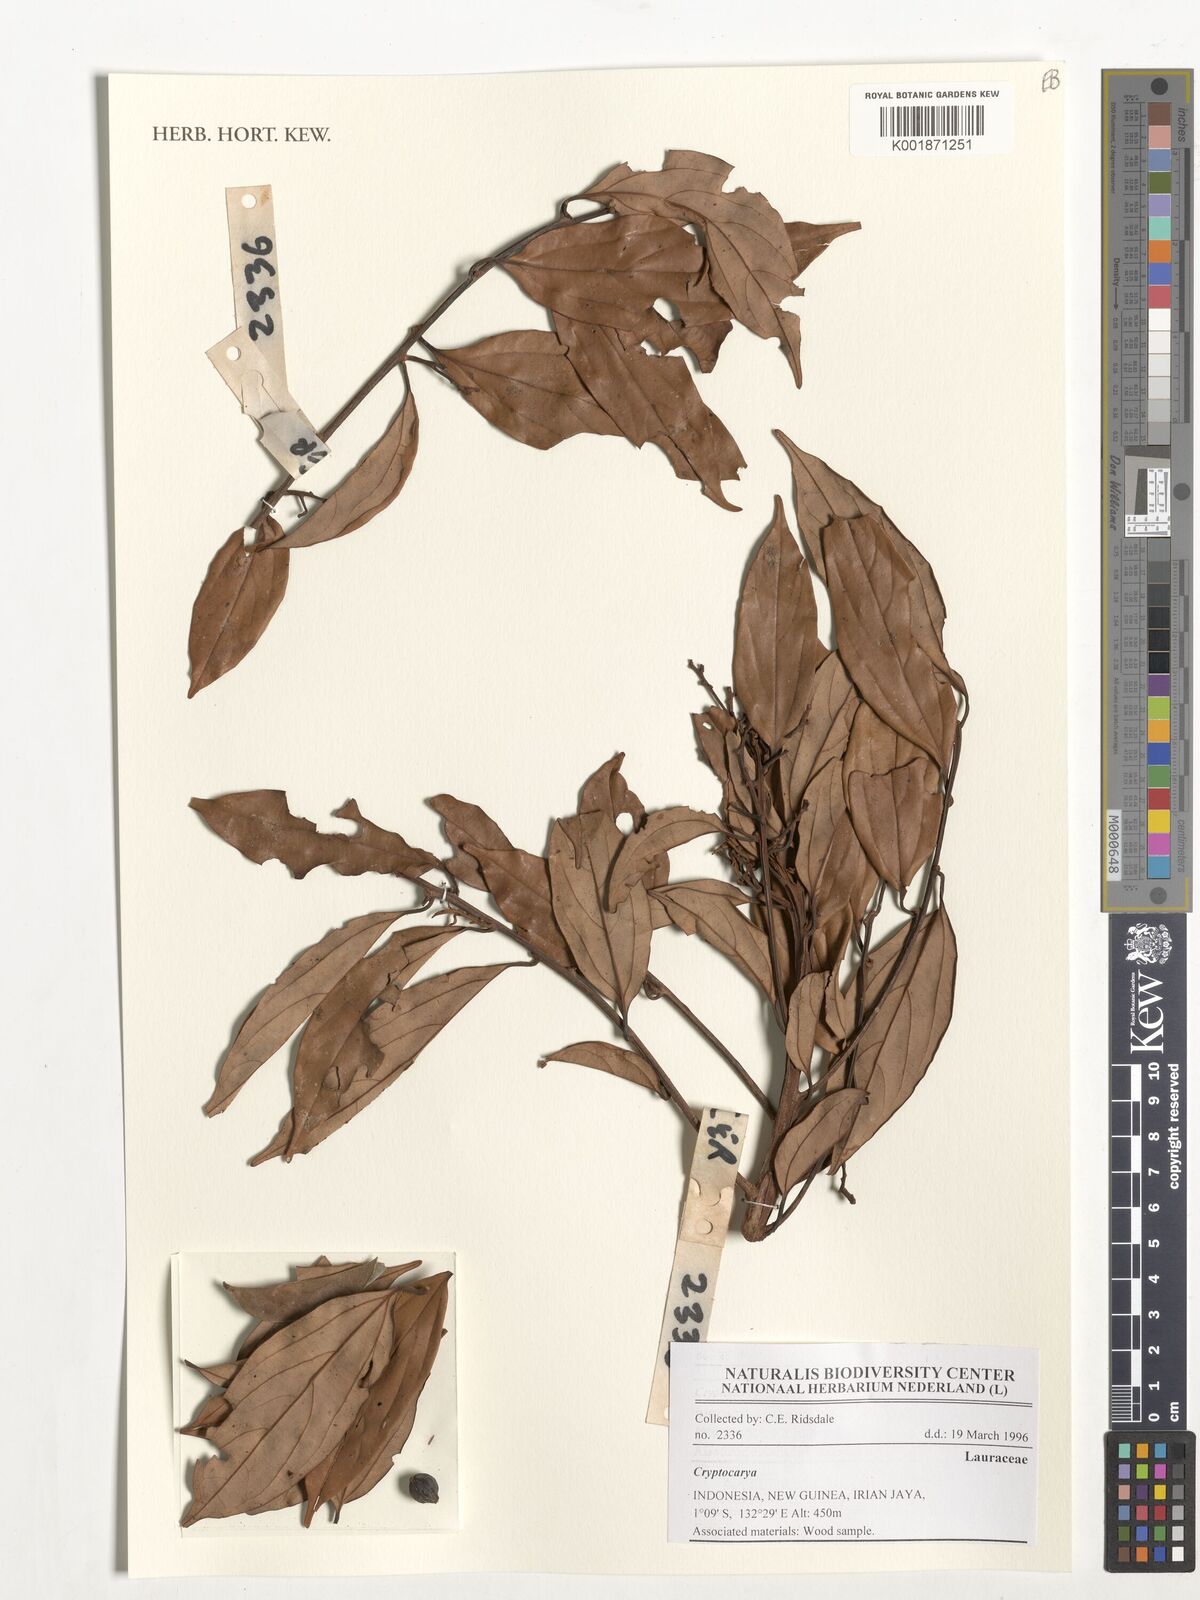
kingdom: Plantae
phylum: Tracheophyta
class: Magnoliopsida
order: Laurales
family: Lauraceae
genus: Cryptocarya
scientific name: Cryptocarya
